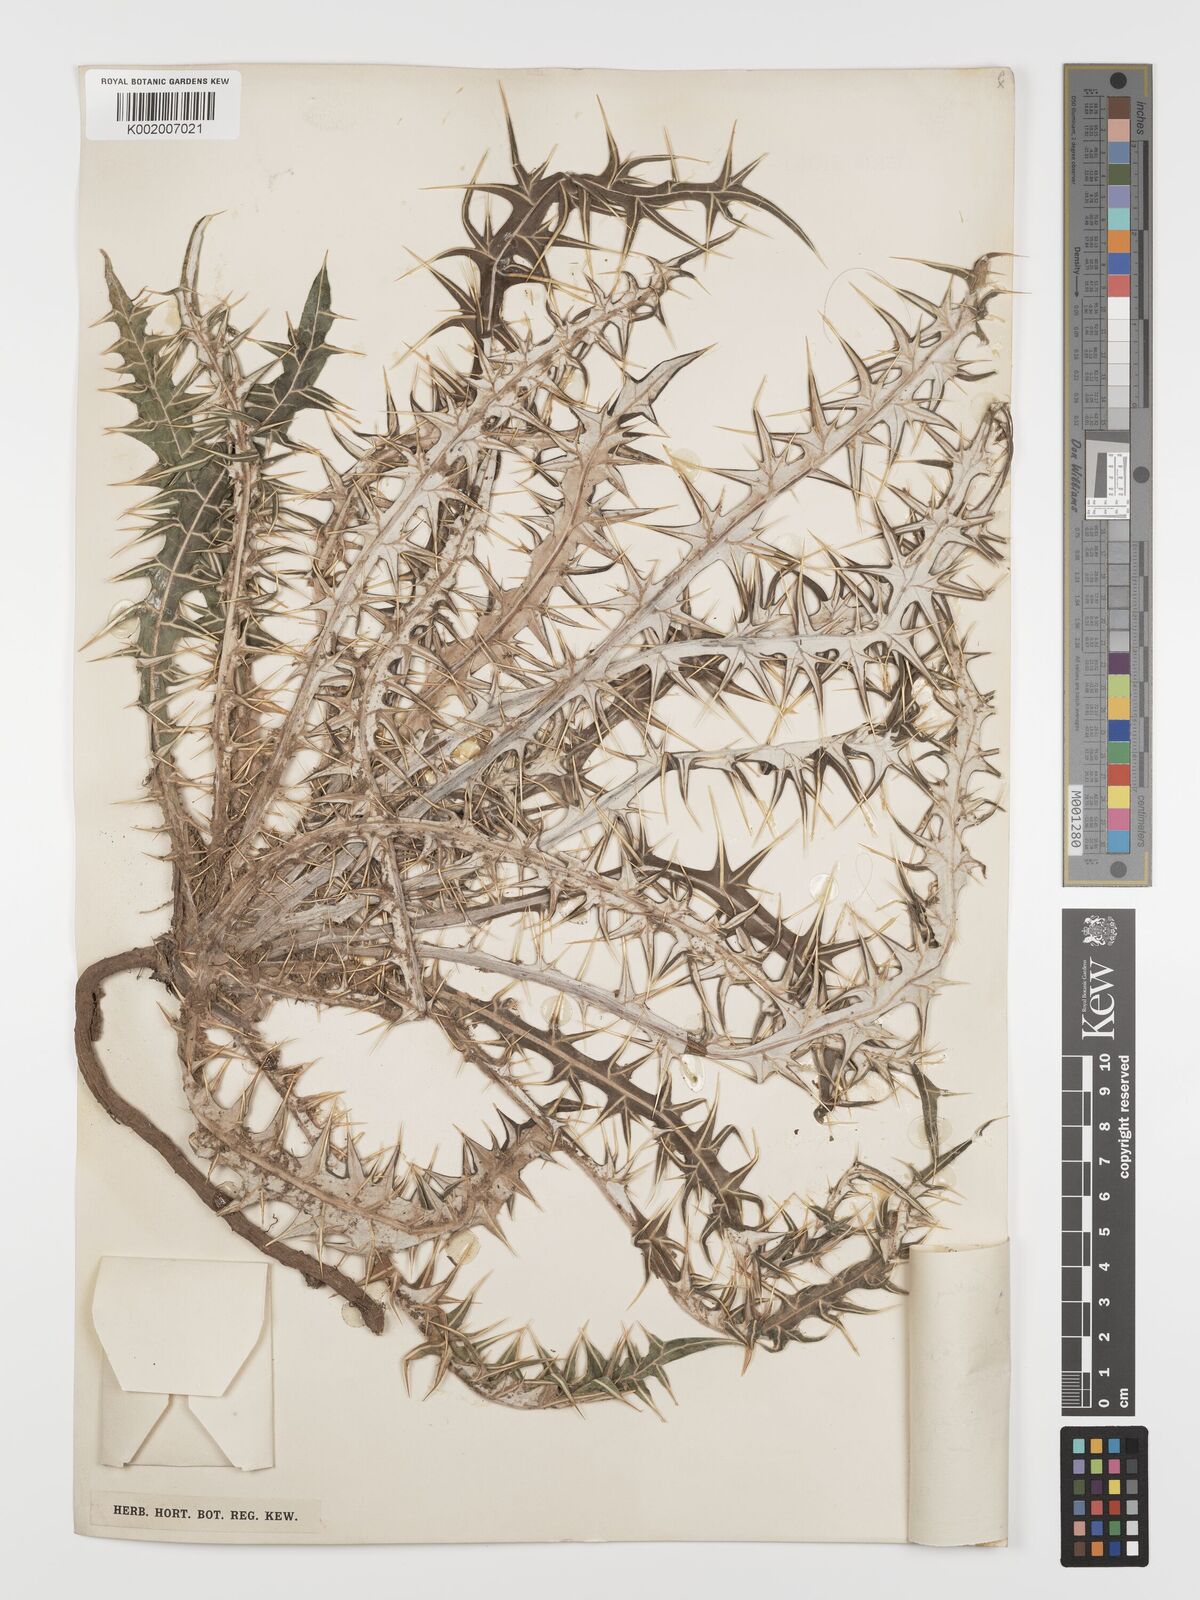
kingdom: Plantae
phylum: Tracheophyta
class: Magnoliopsida
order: Asterales
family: Asteraceae
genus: Ptilostemon
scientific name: Ptilostemon afer
